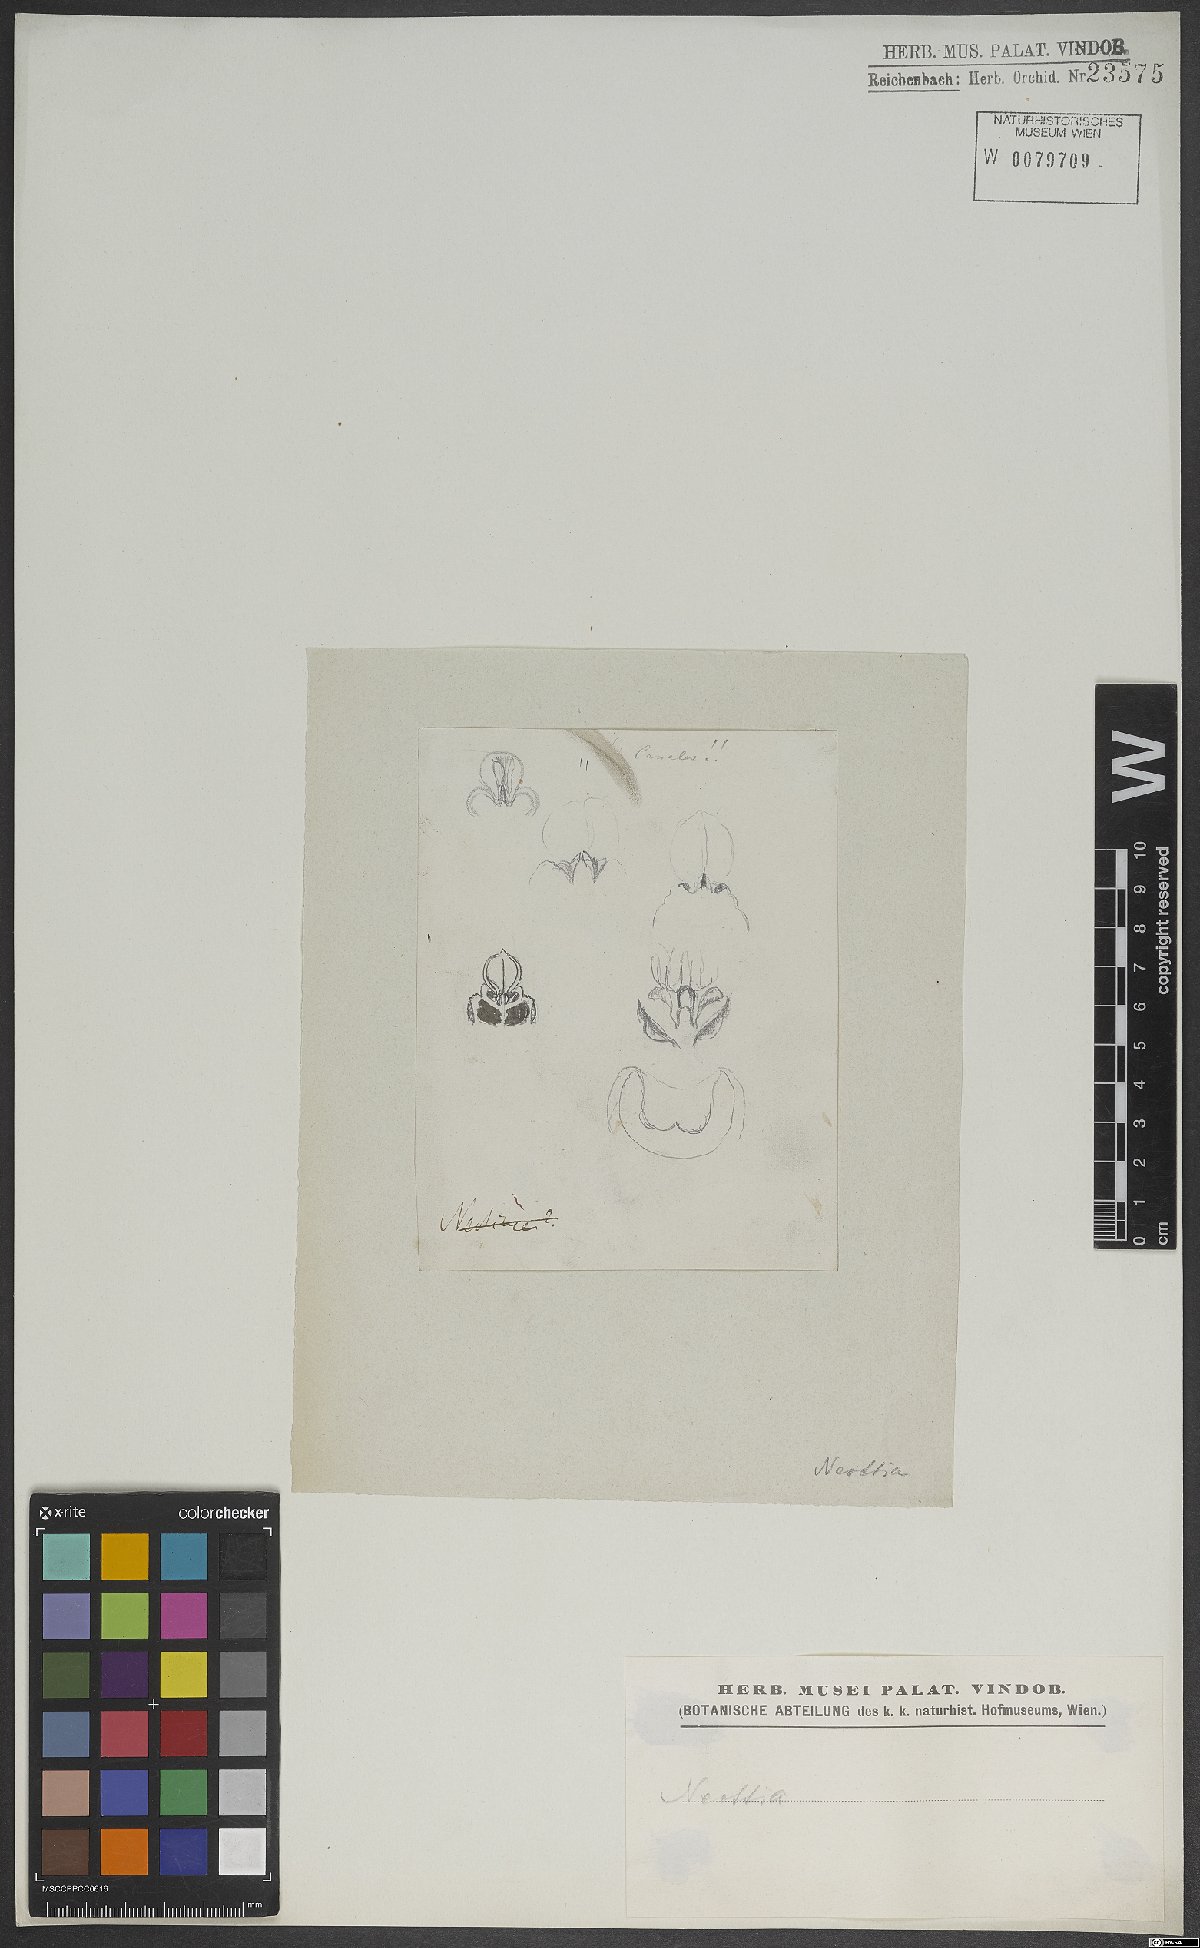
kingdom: Plantae
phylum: Tracheophyta
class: Liliopsida
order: Asparagales
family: Orchidaceae
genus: Neottia
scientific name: Neottia nidus-avis
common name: Bird's-nest orchid
